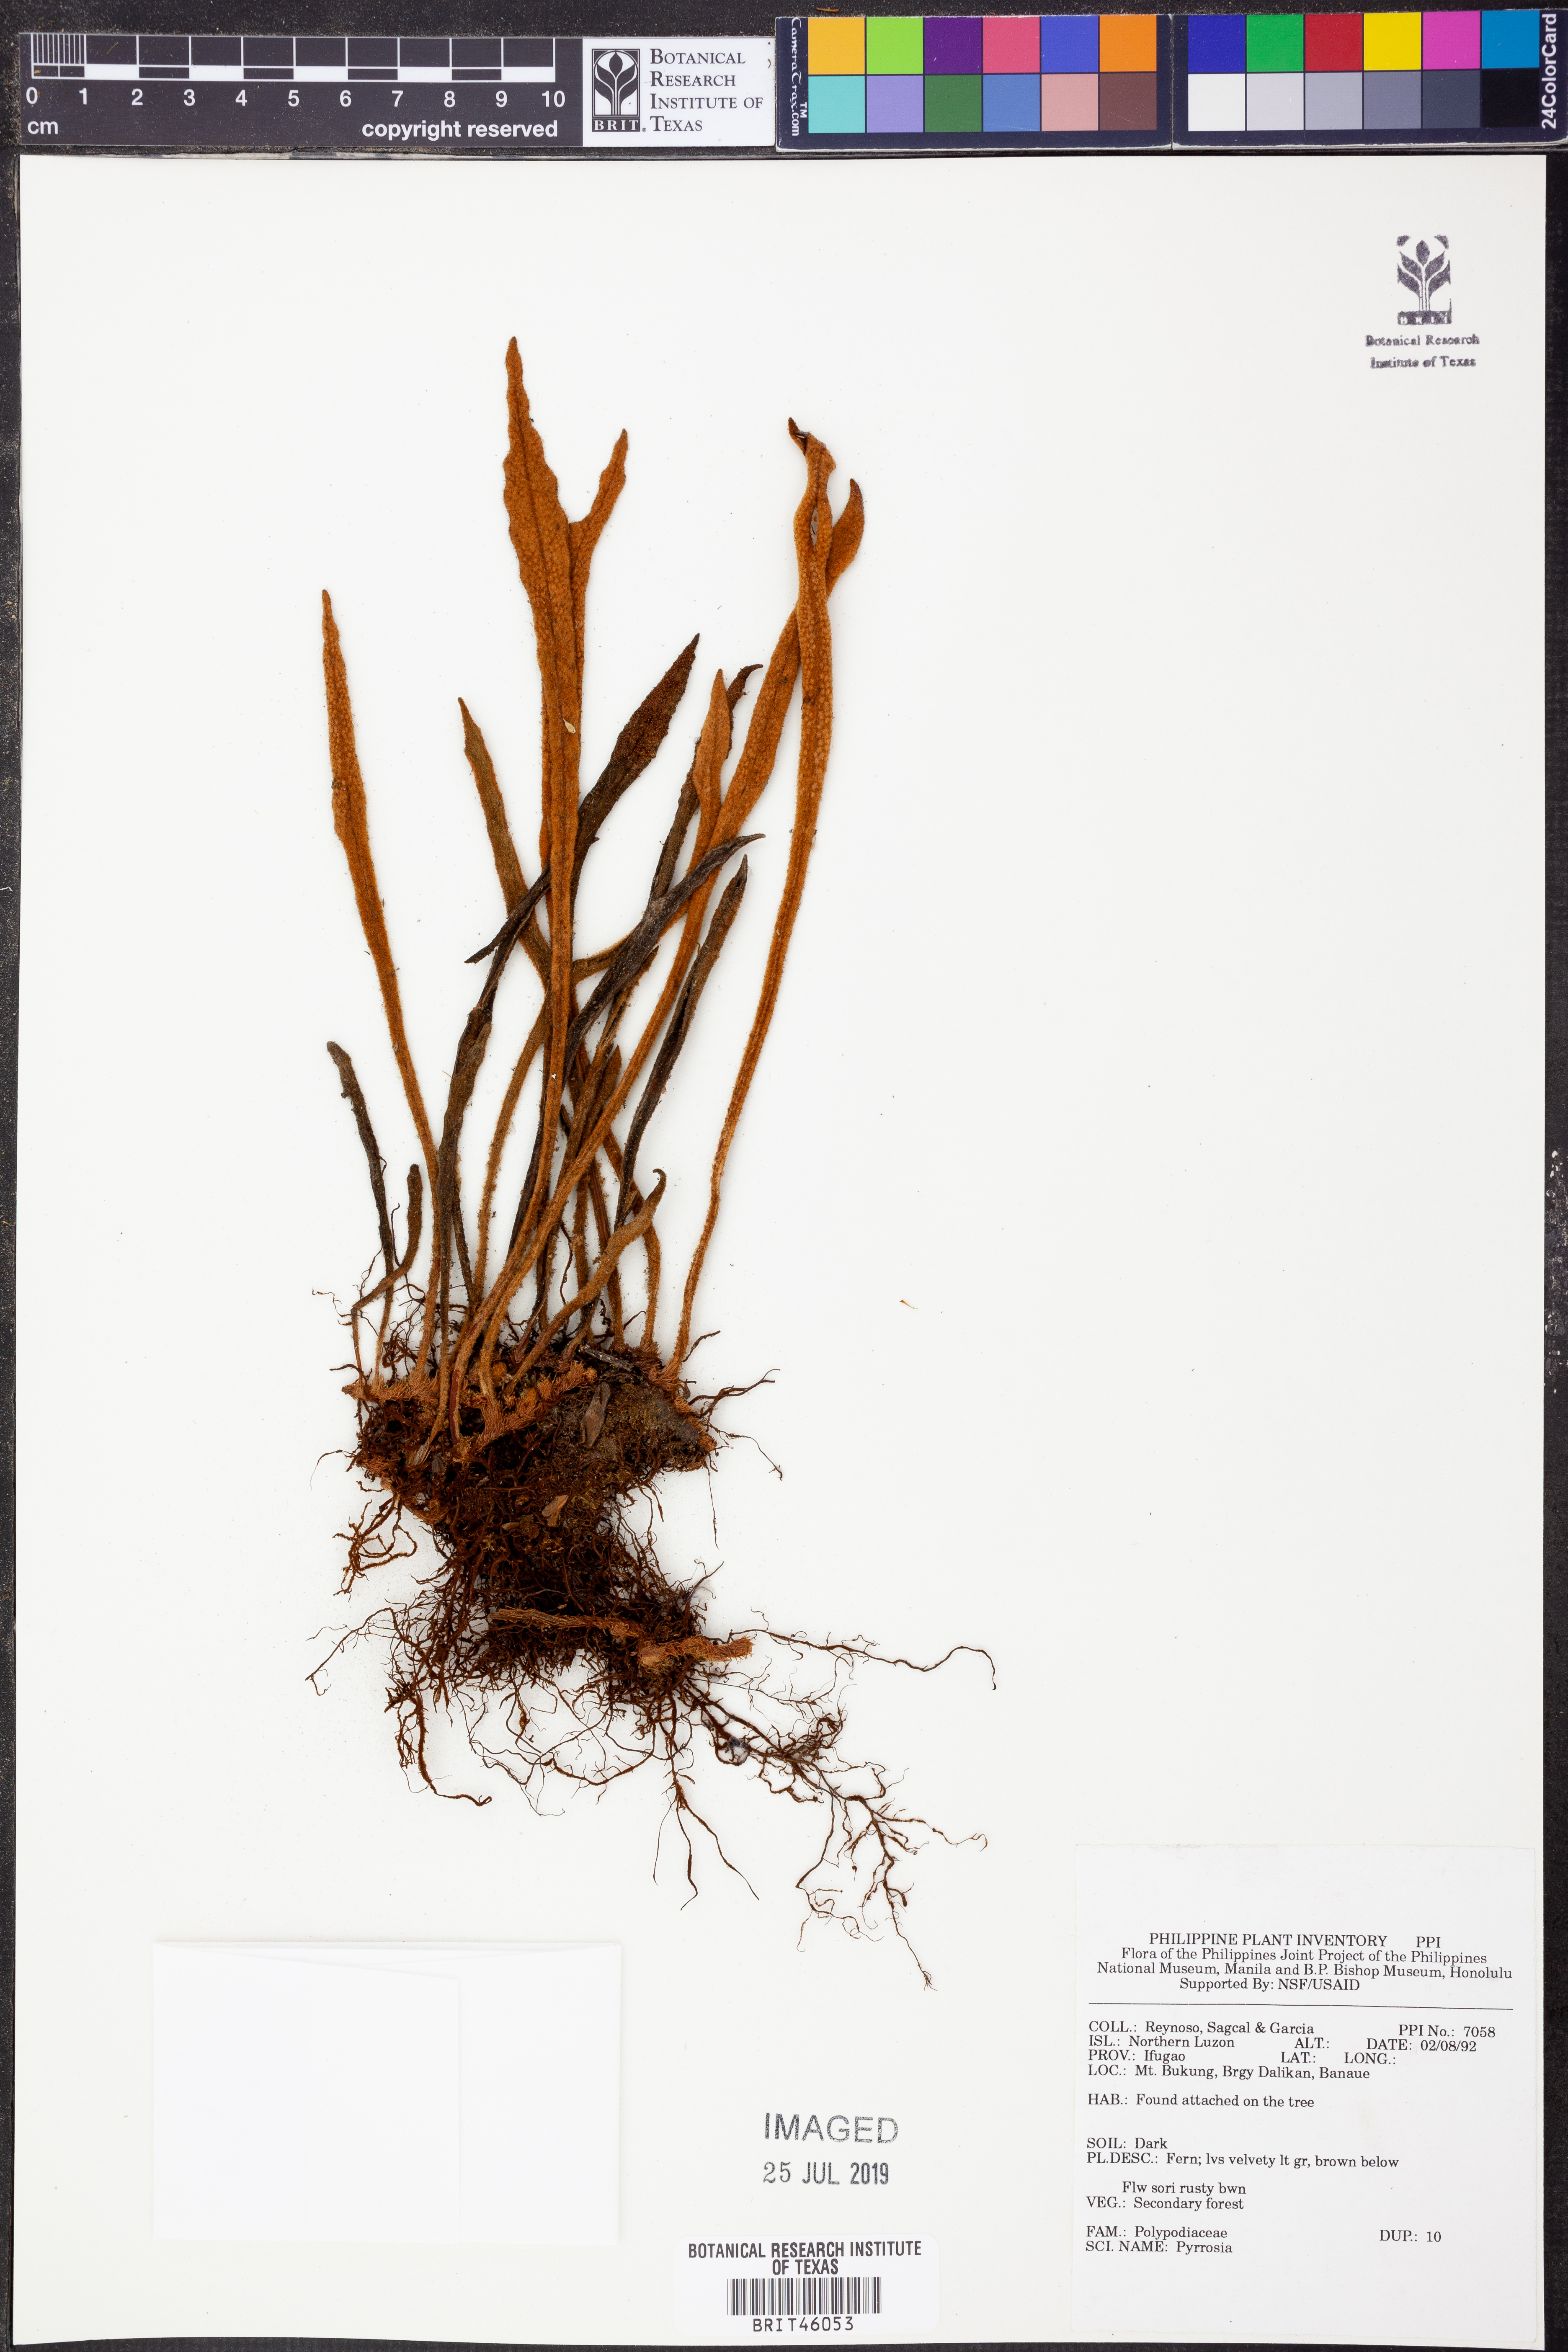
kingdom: Plantae
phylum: Tracheophyta
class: Polypodiopsida
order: Polypodiales
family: Polypodiaceae
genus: Pyrrosia
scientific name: Pyrrosia
